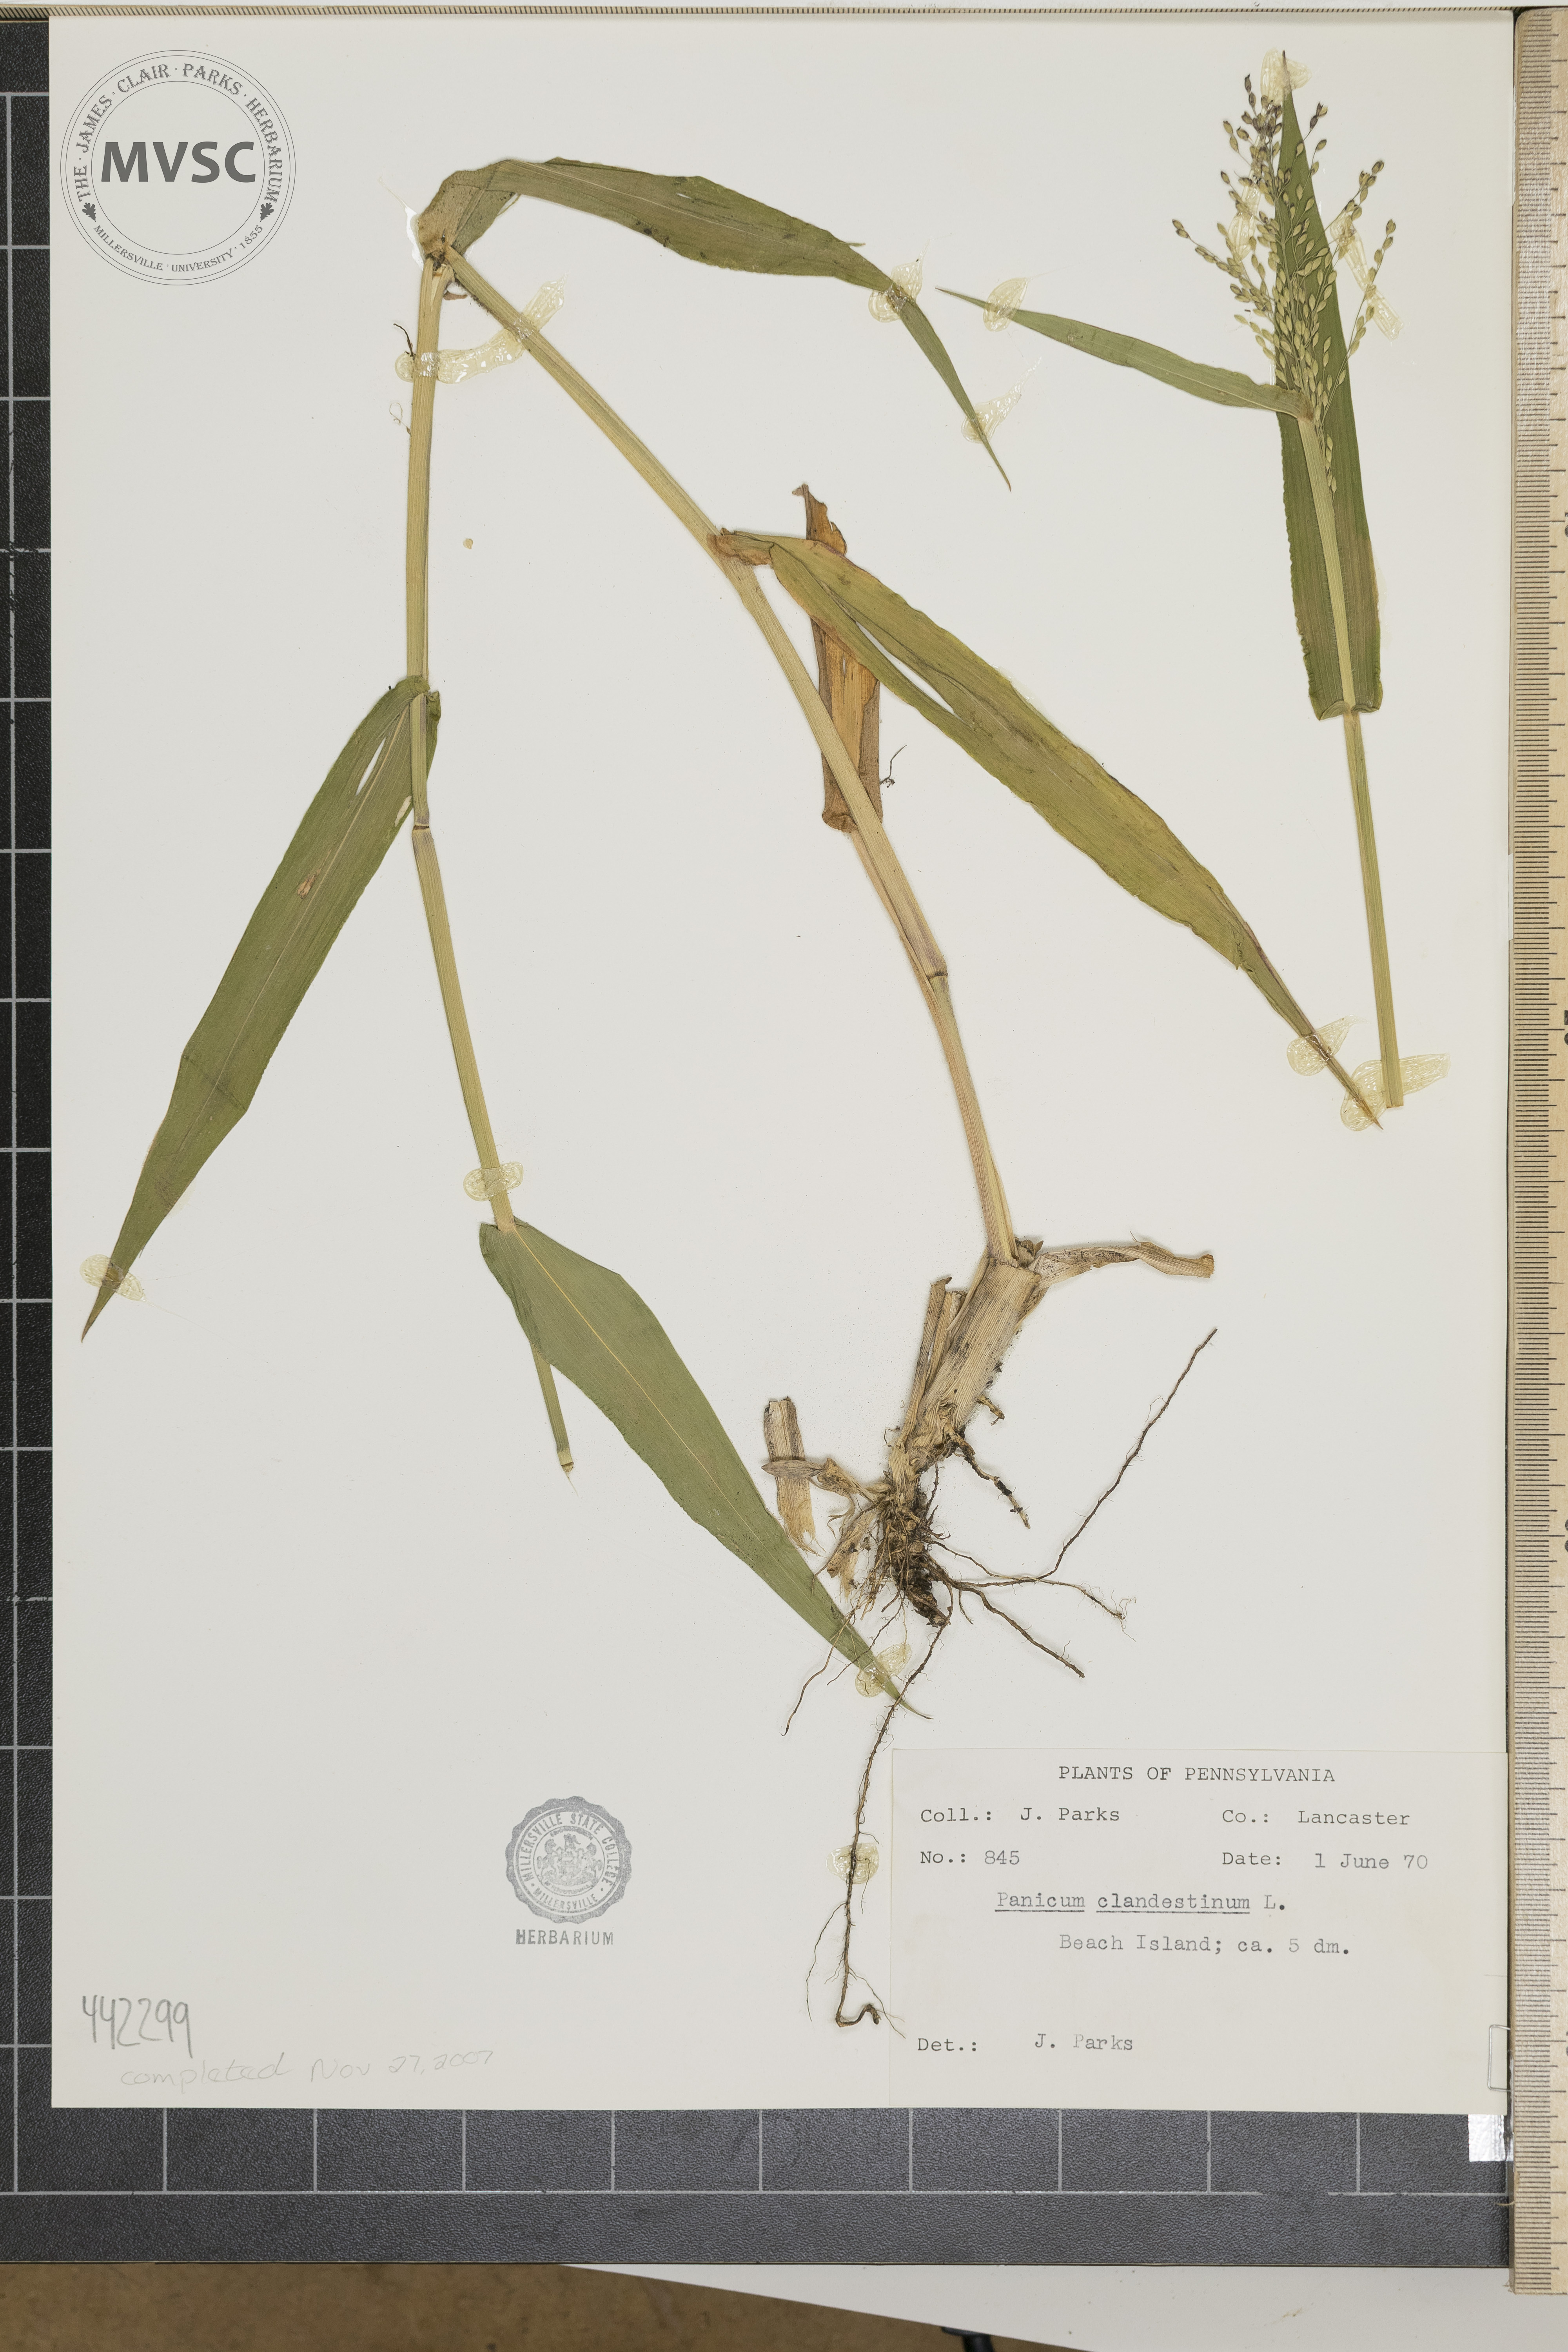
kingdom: Plantae
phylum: Tracheophyta
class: Liliopsida
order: Poales
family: Poaceae
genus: Dichanthelium
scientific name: Dichanthelium clandestinum
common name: Deer-tongue grass
